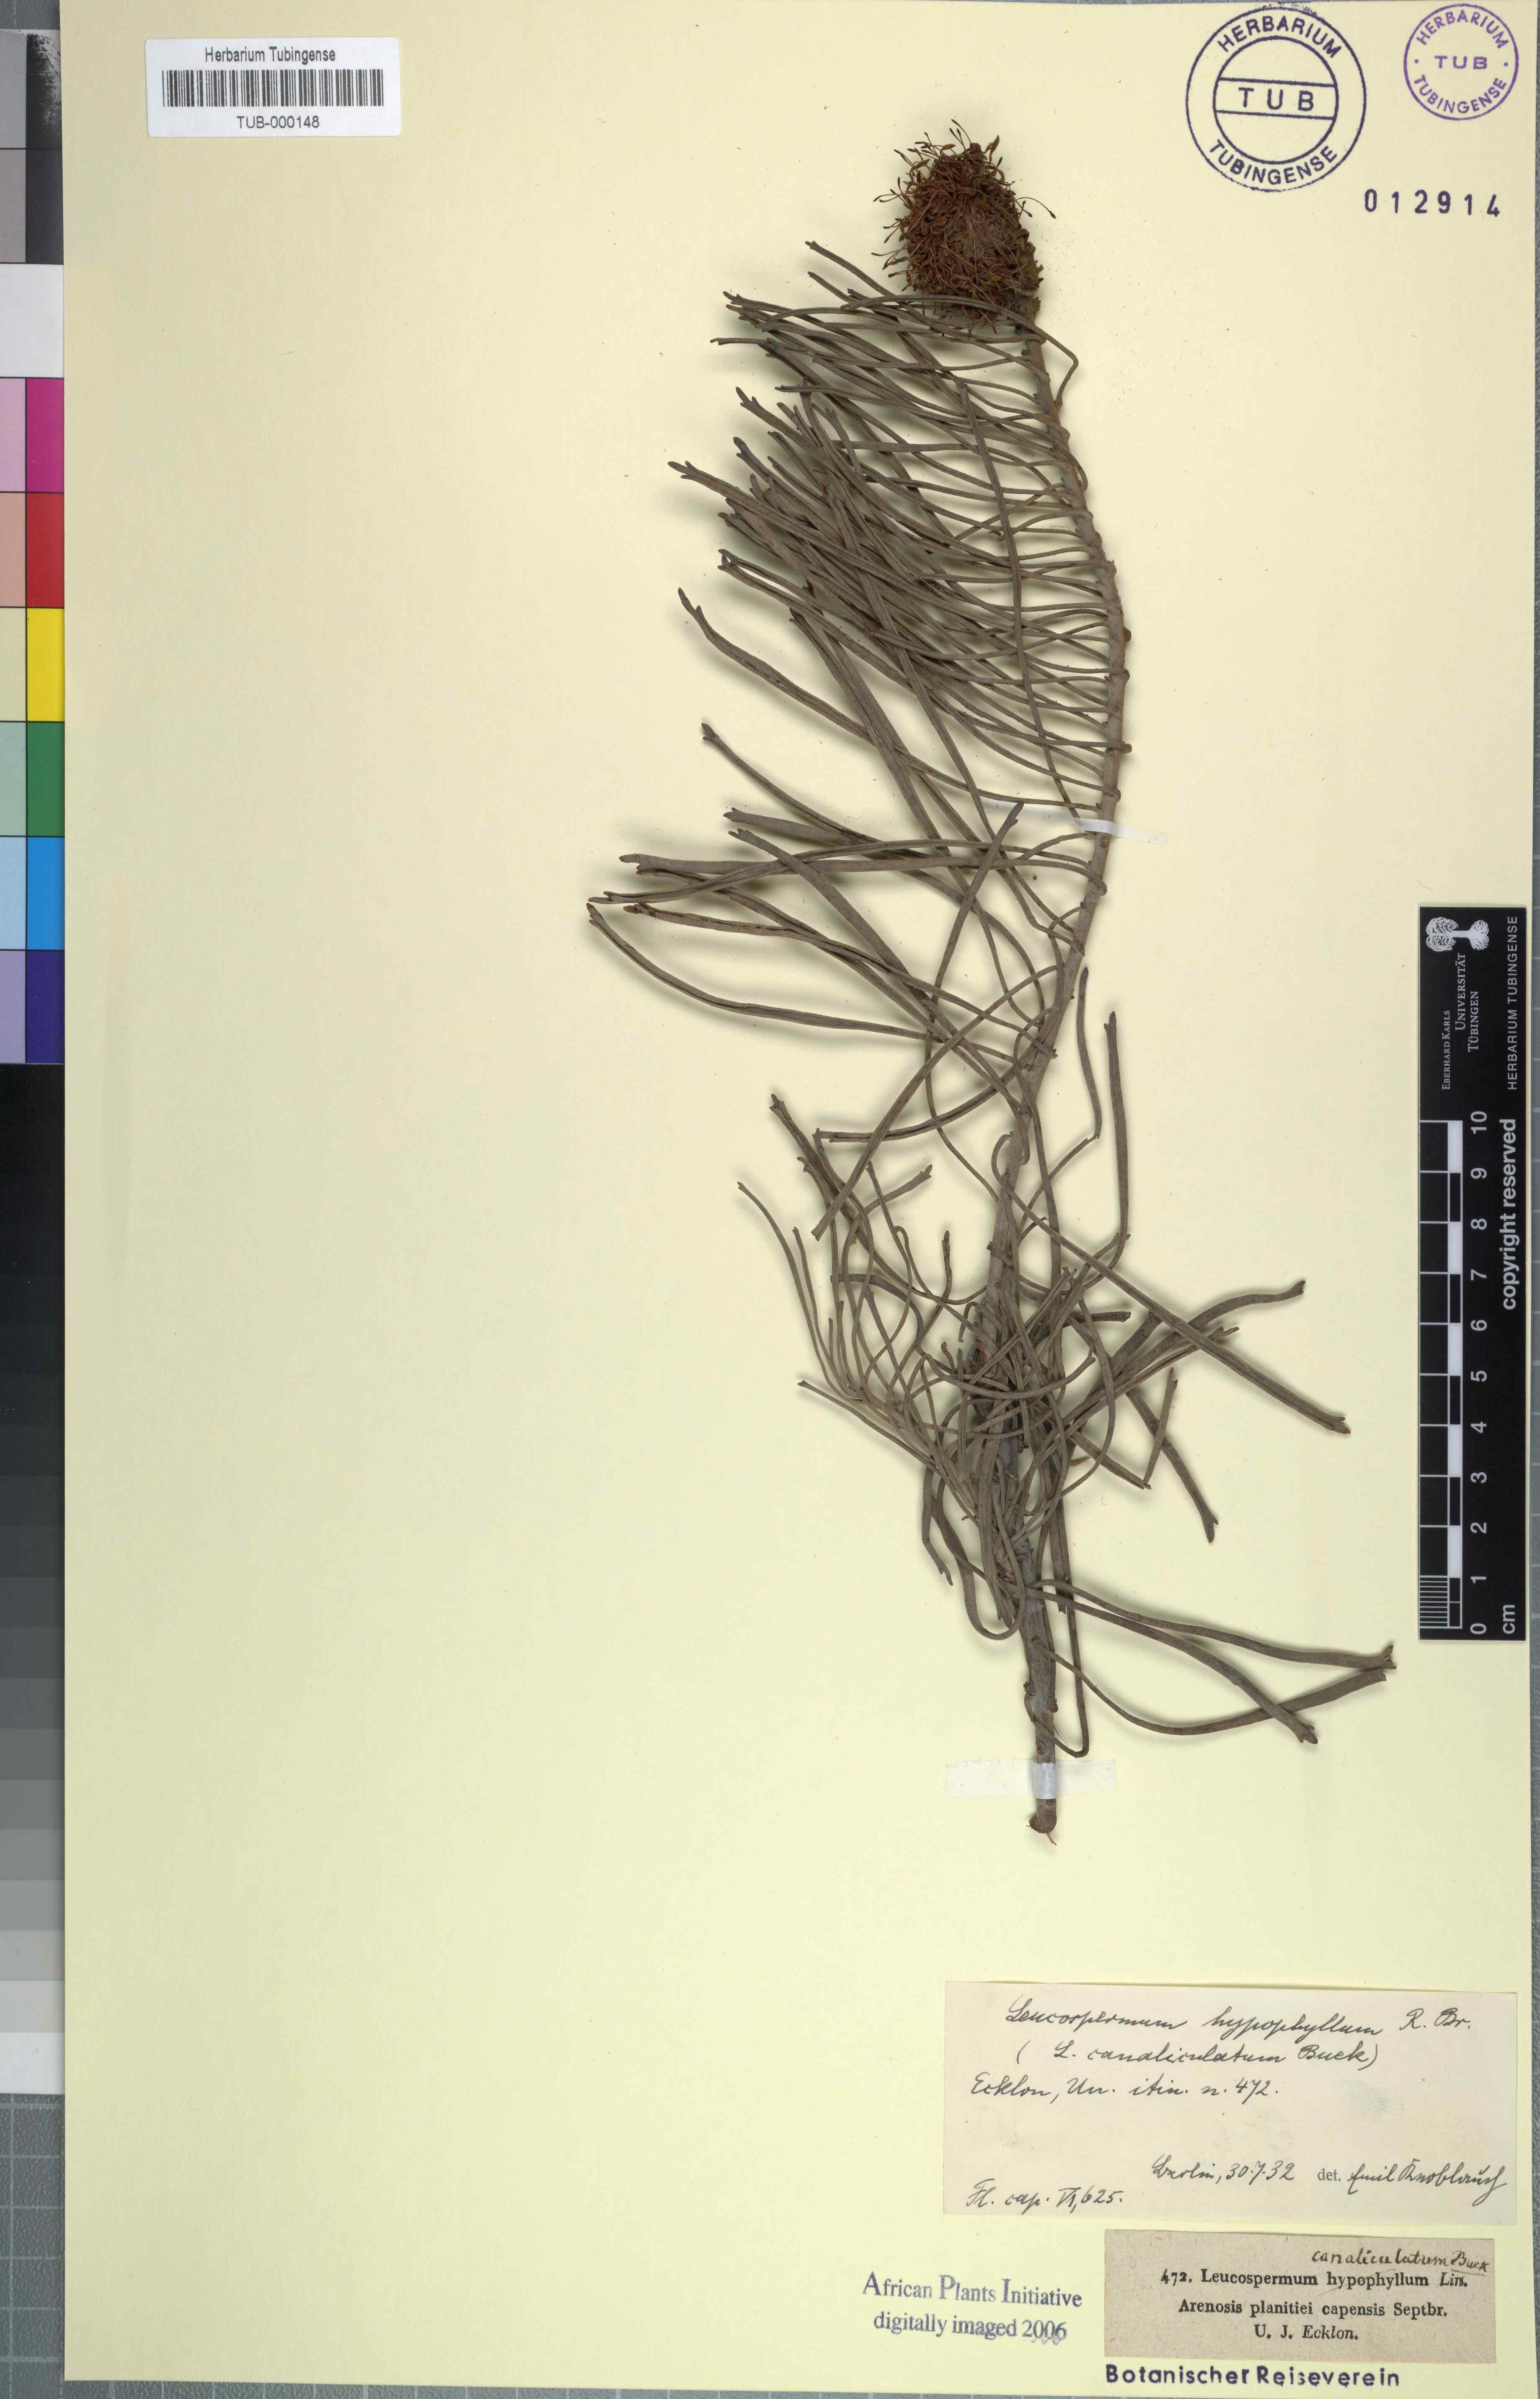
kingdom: Plantae
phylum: Tracheophyta
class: Magnoliopsida
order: Proteales
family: Proteaceae
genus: Leucospermum
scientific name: Leucospermum hypophyllocarpodendron
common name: Snakestem pincushion
